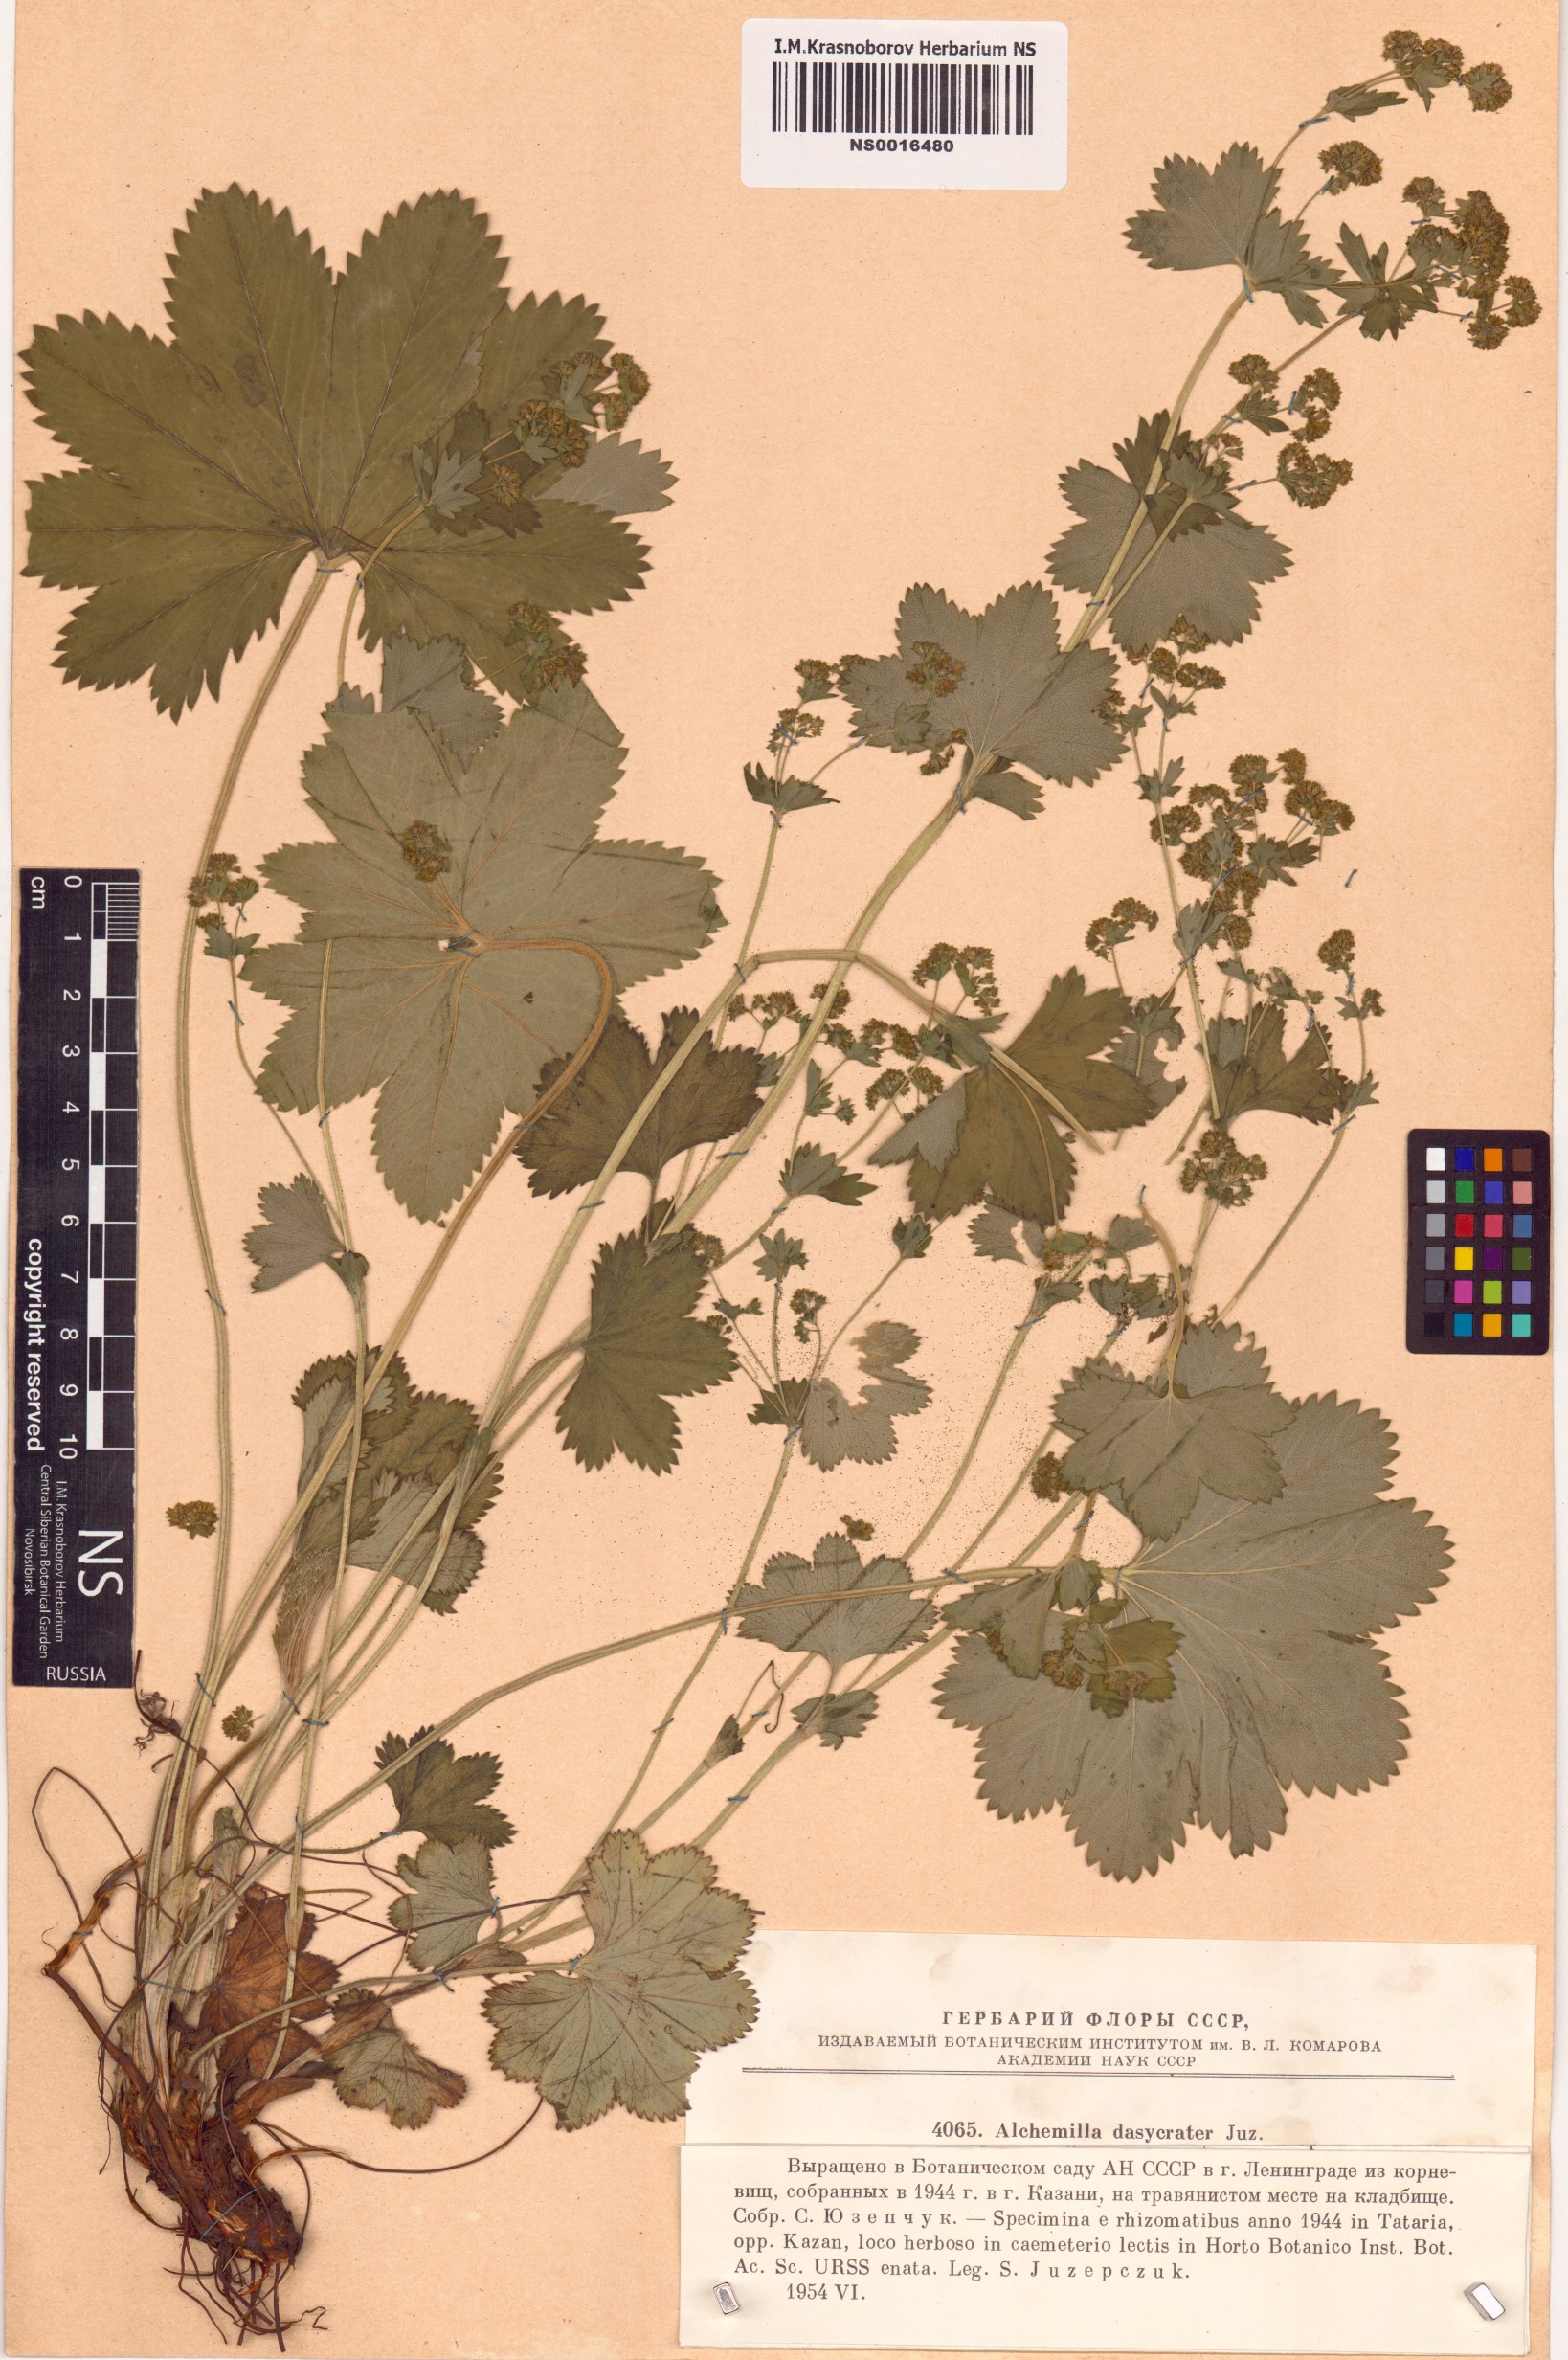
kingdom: Plantae
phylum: Tracheophyta
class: Magnoliopsida
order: Rosales
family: Rosaceae
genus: Alchemilla
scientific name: Alchemilla dasycrater
